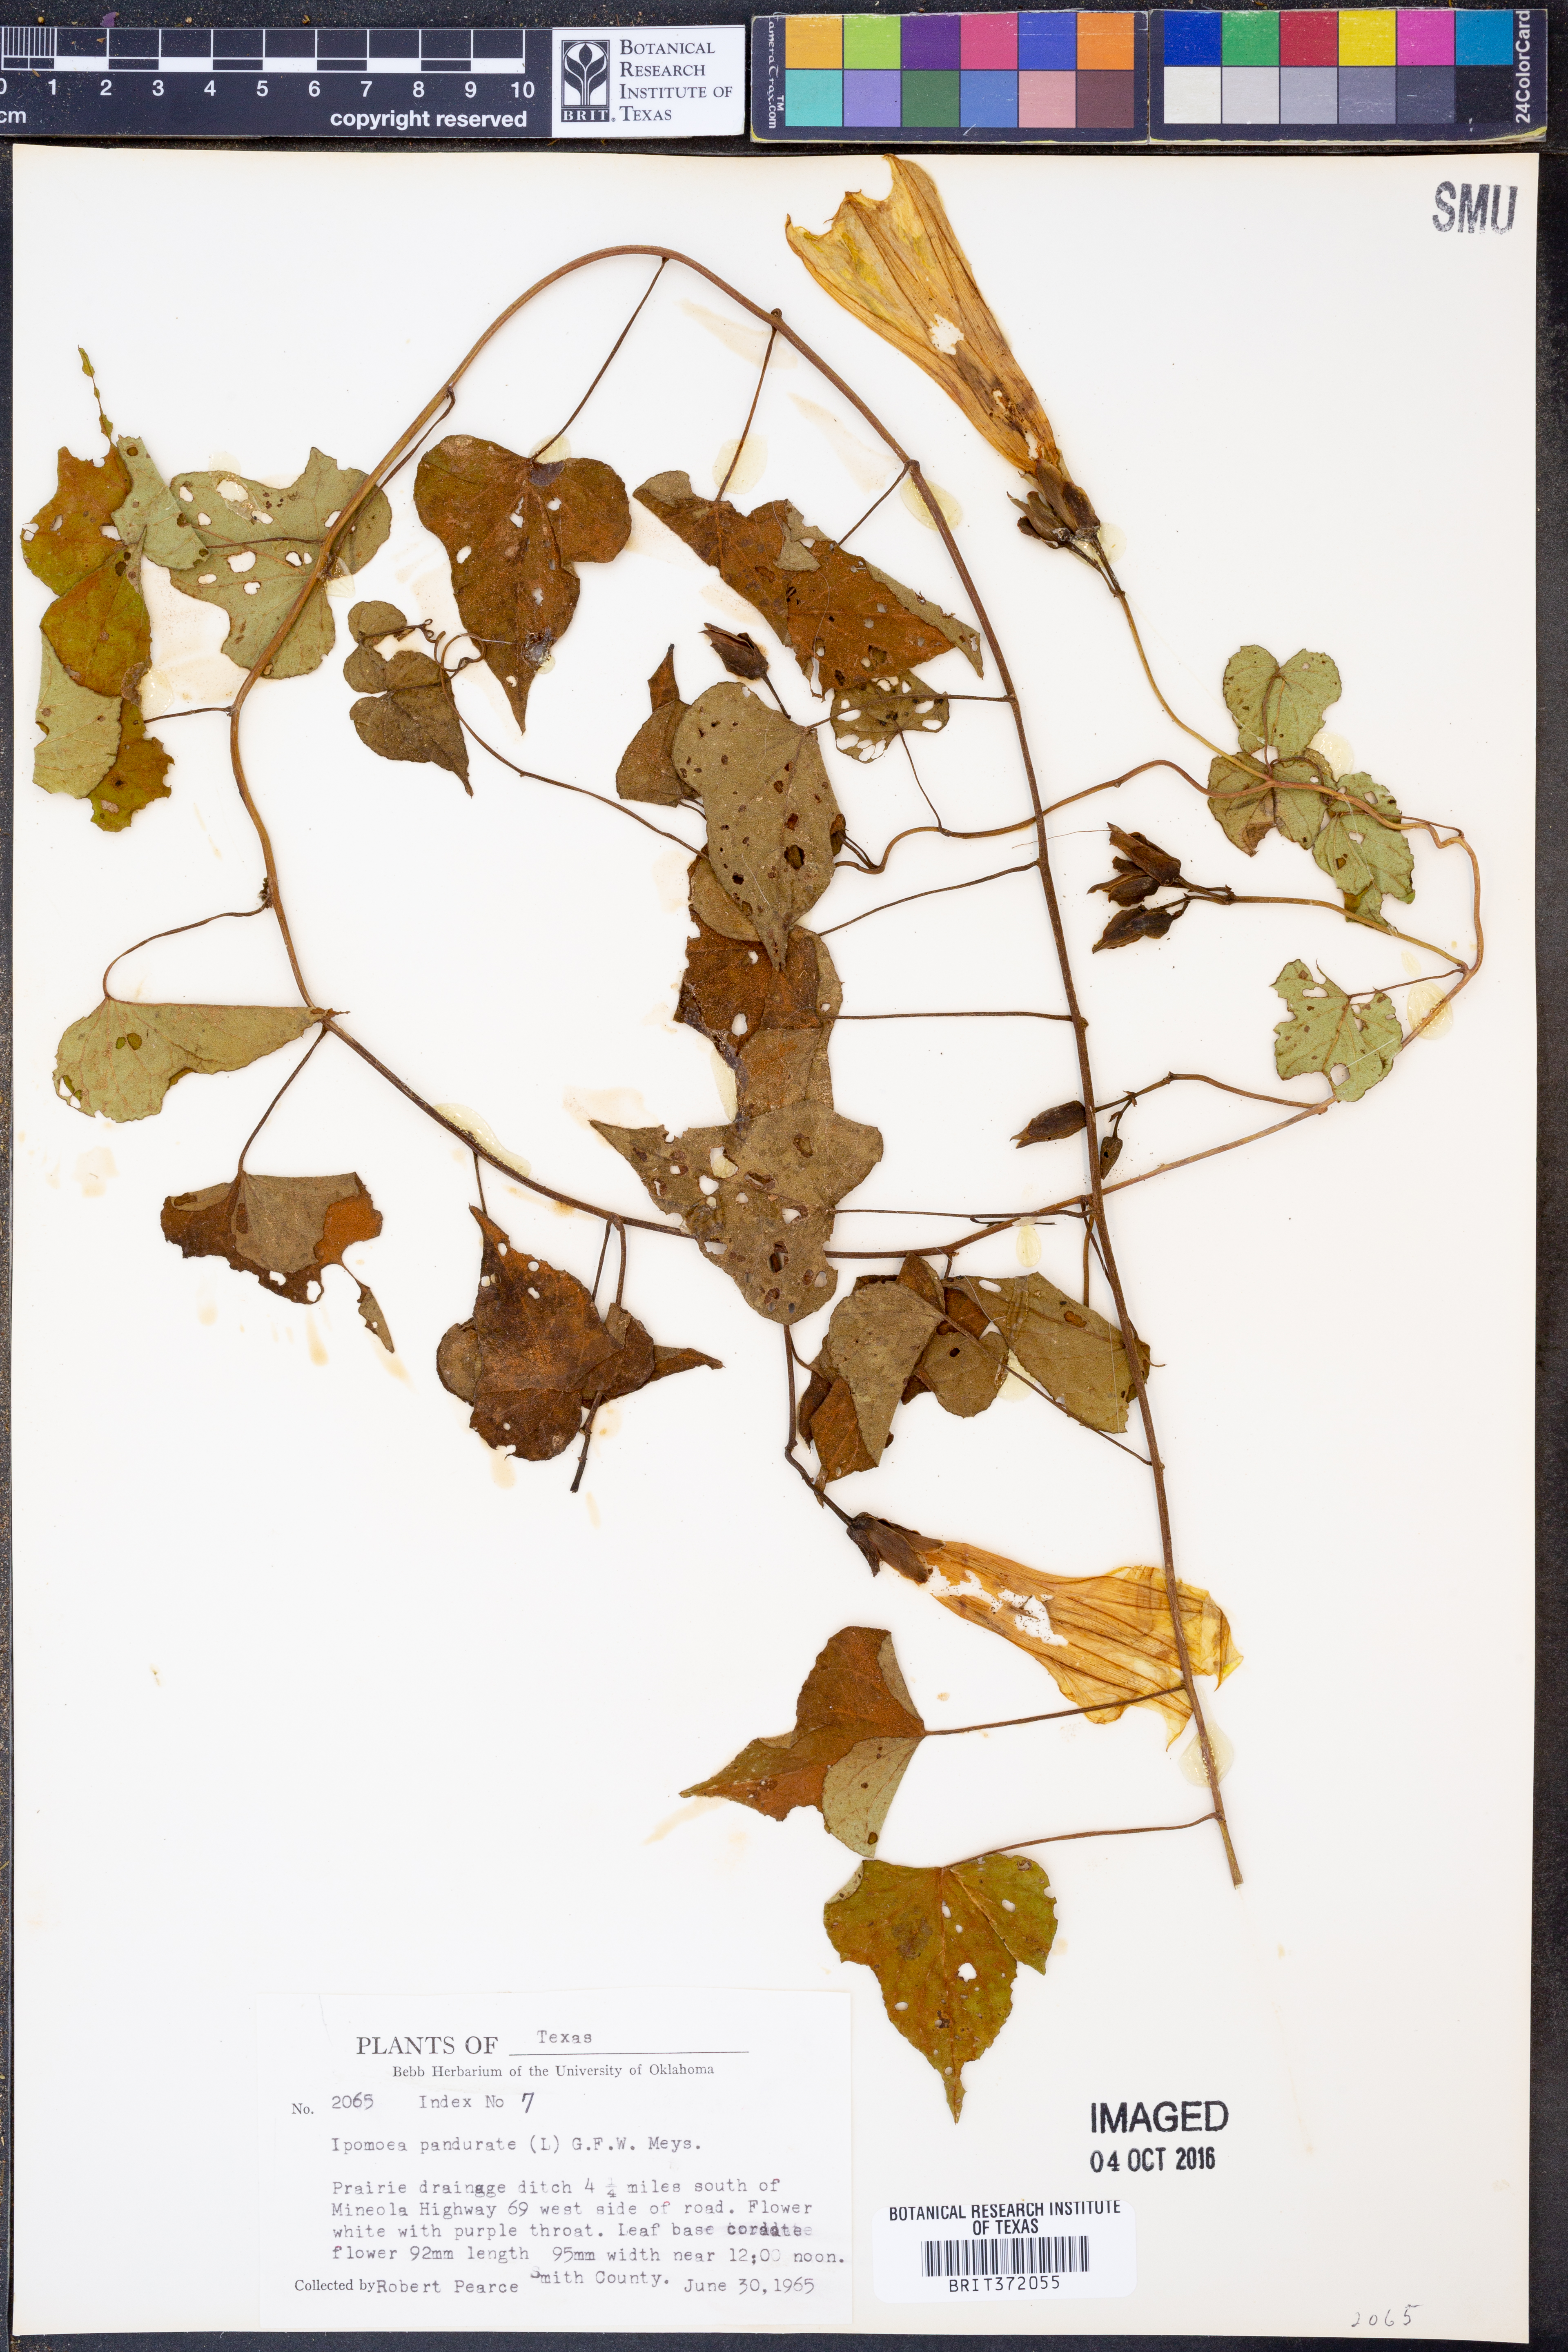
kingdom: Plantae
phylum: Tracheophyta
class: Magnoliopsida
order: Solanales
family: Convolvulaceae
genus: Ipomoea
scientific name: Ipomoea pandurata
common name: Man-of-the-earth
